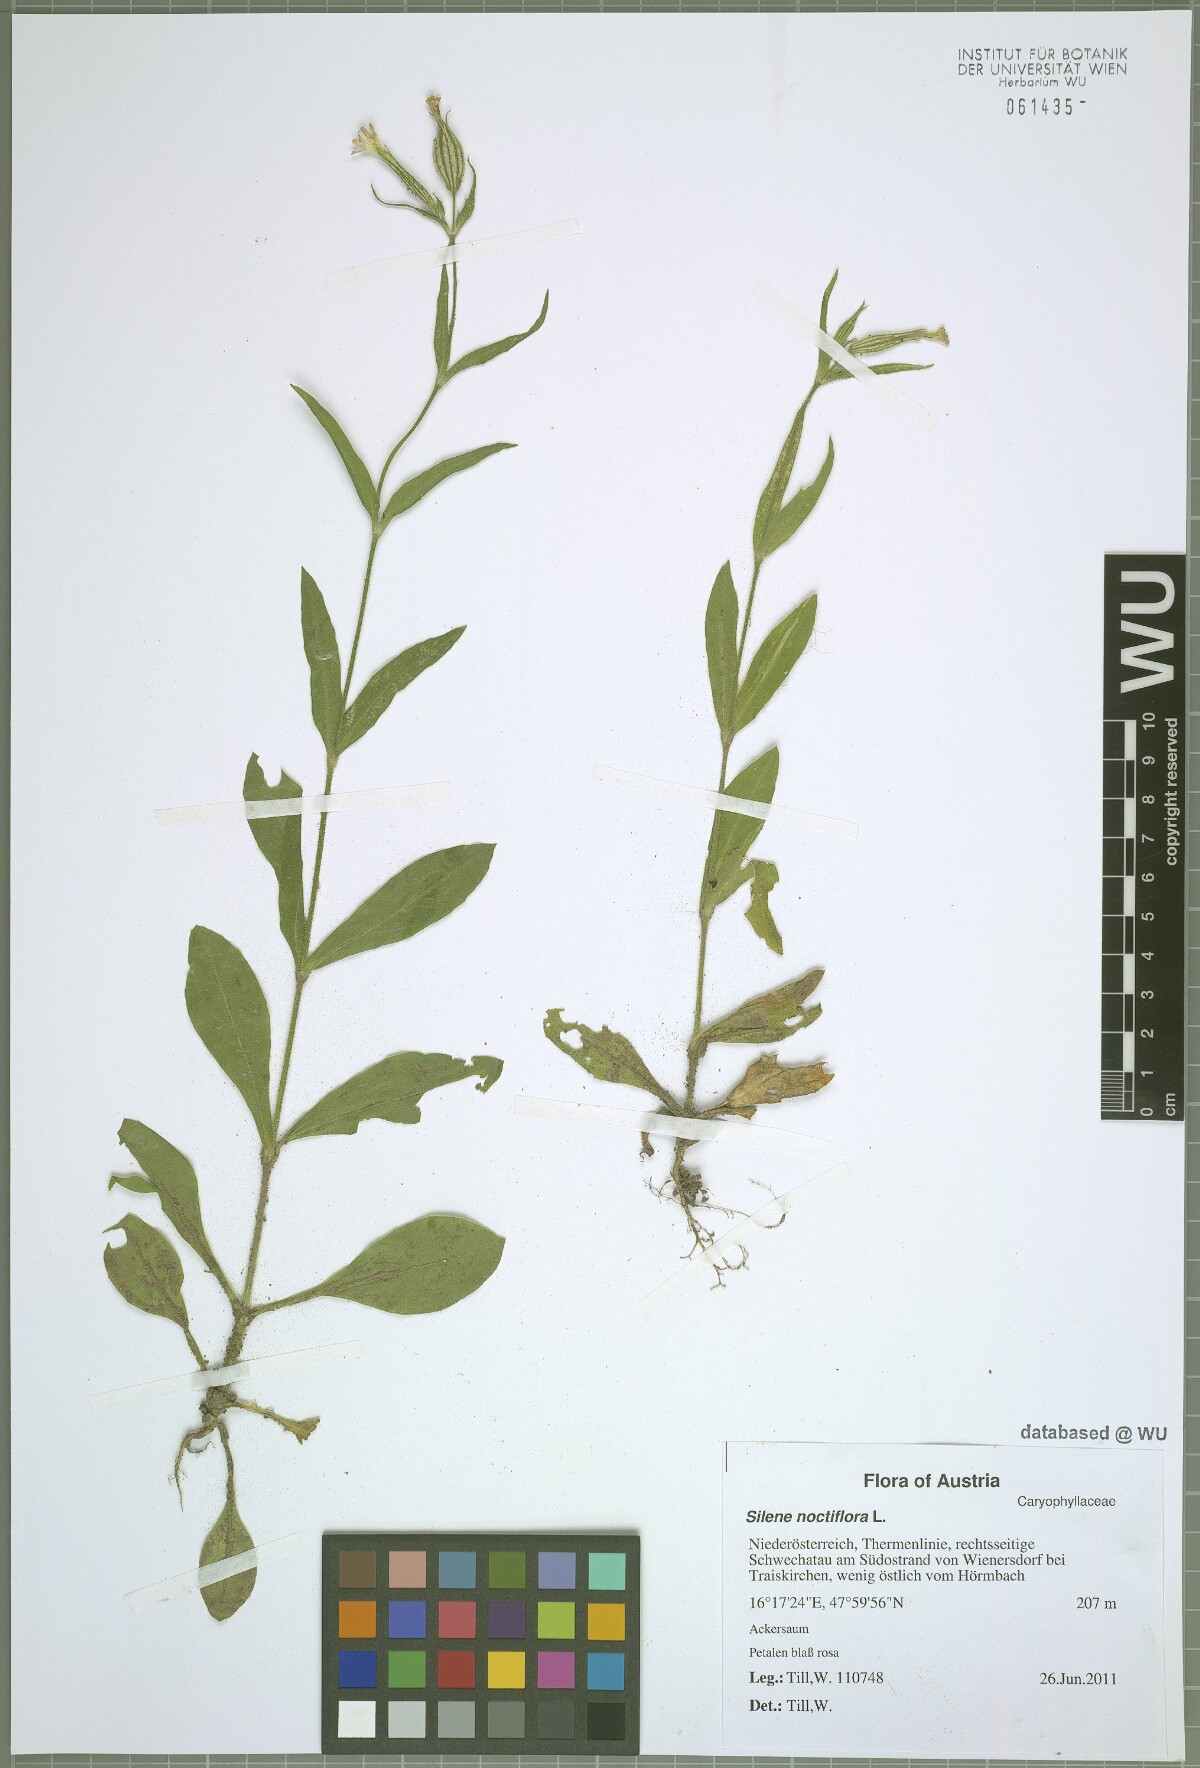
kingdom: Plantae
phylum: Tracheophyta
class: Magnoliopsida
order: Caryophyllales
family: Caryophyllaceae
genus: Silene
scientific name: Silene noctiflora
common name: Night-flowering catchfly
